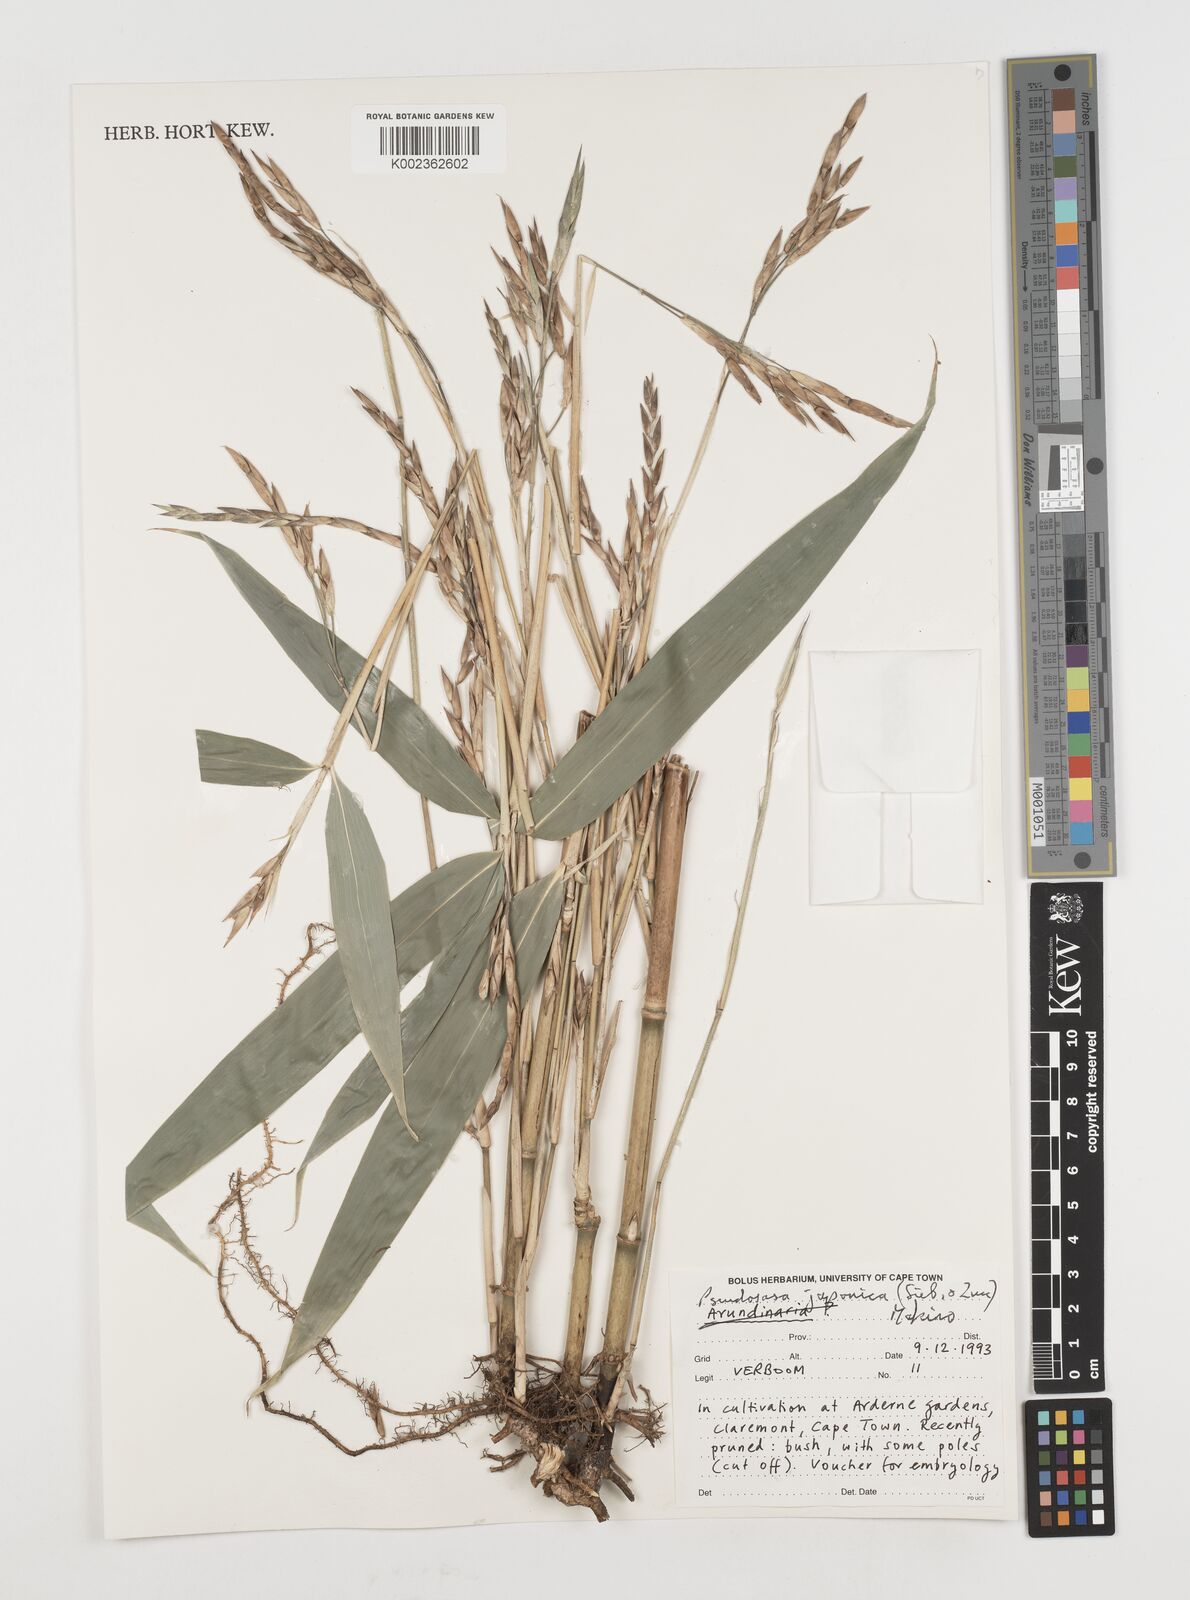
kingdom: Plantae
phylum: Tracheophyta
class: Liliopsida
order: Poales
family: Poaceae
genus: Pseudosasa
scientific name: Pseudosasa japonica
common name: Arrow bamboo
